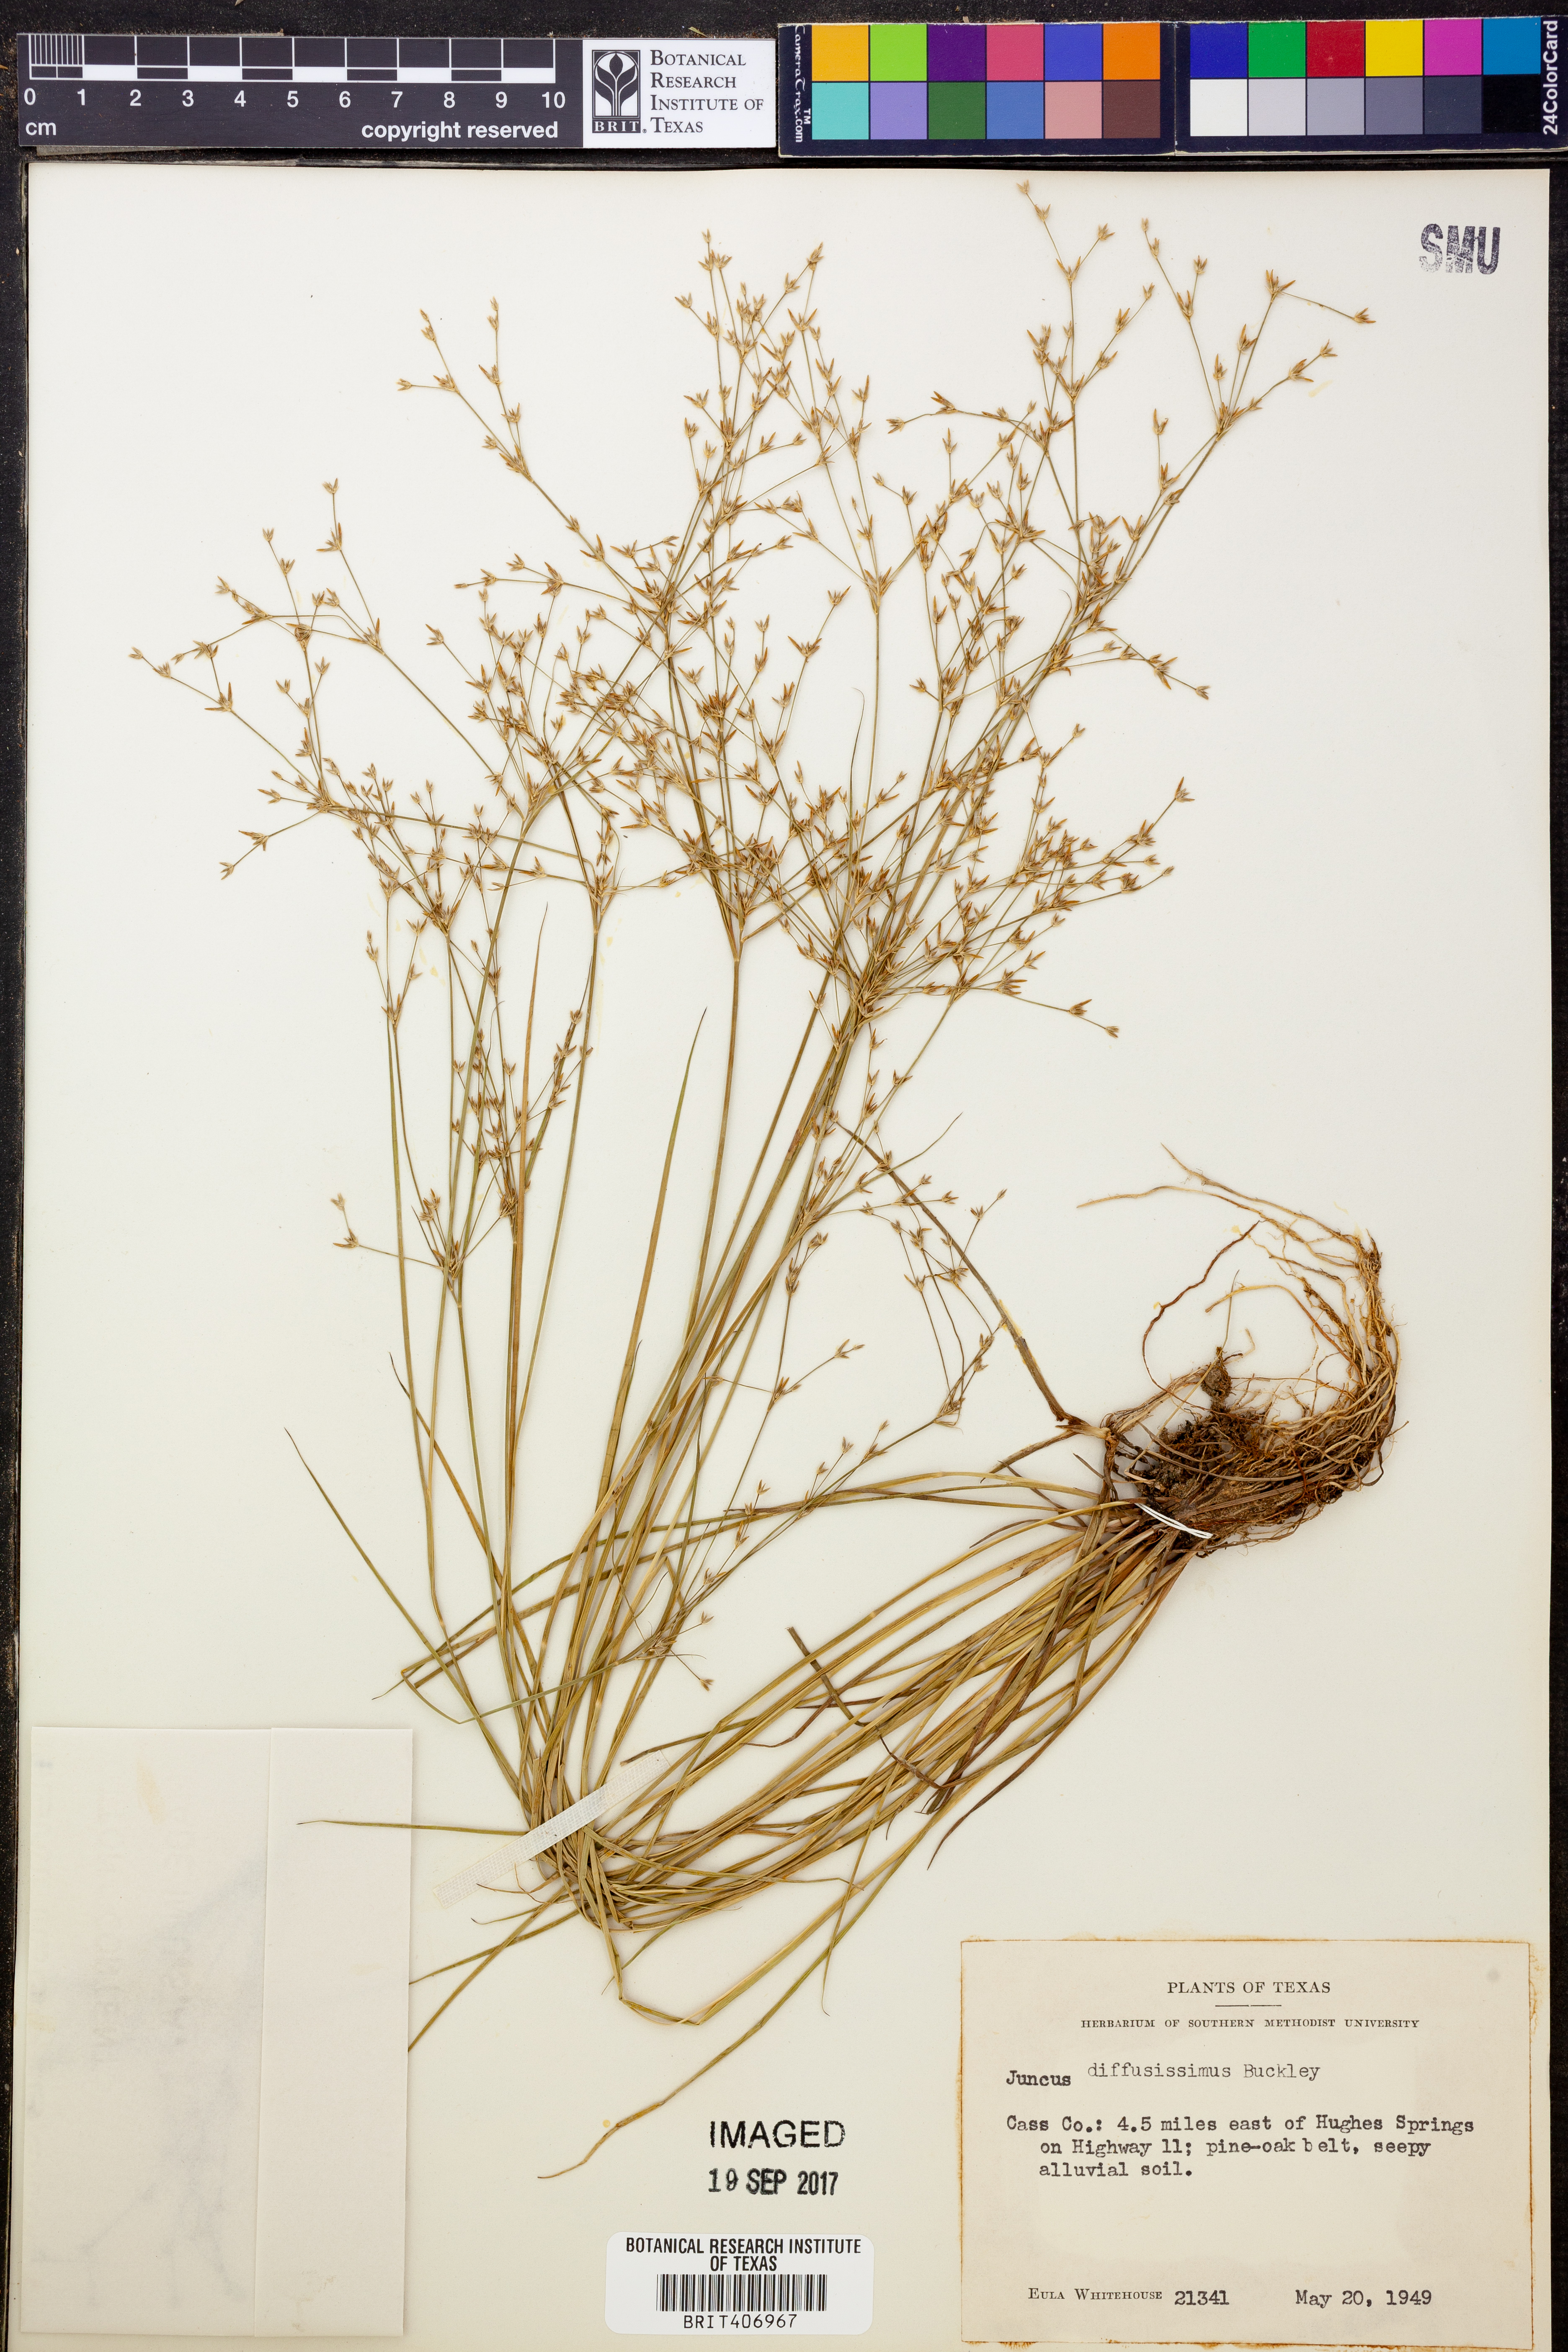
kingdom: Plantae
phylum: Tracheophyta
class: Liliopsida
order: Poales
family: Juncaceae
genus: Juncus
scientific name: Juncus diffusissimus
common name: Slimpod rush
